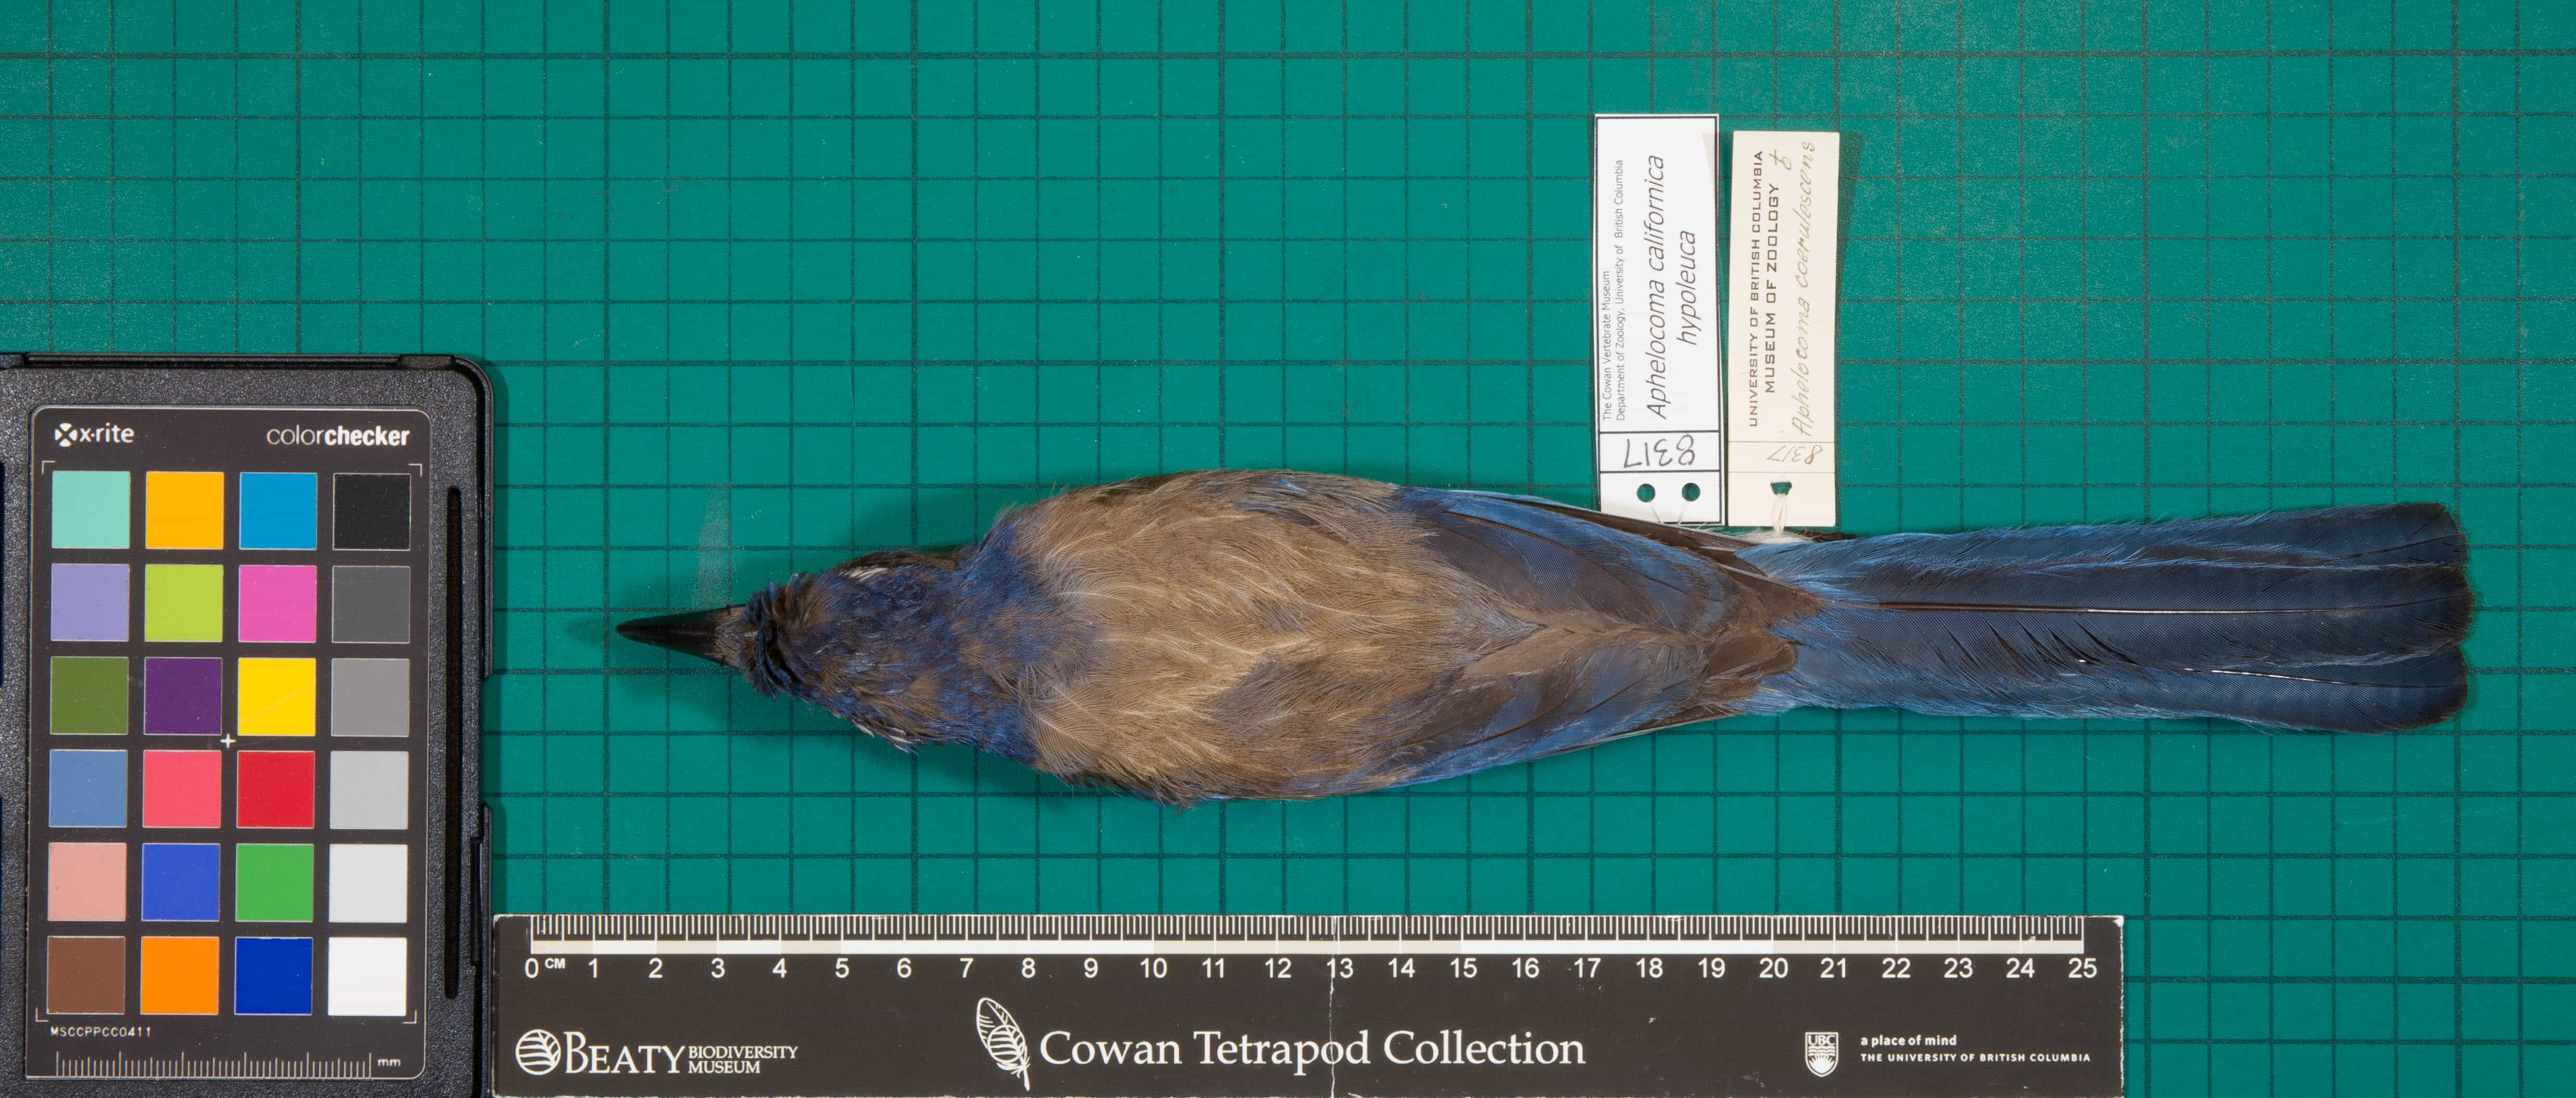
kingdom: Animalia
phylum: Chordata
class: Aves
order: Passeriformes
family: Corvidae
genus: Aphelocoma
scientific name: Aphelocoma californica
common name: California Scrub-Jay
